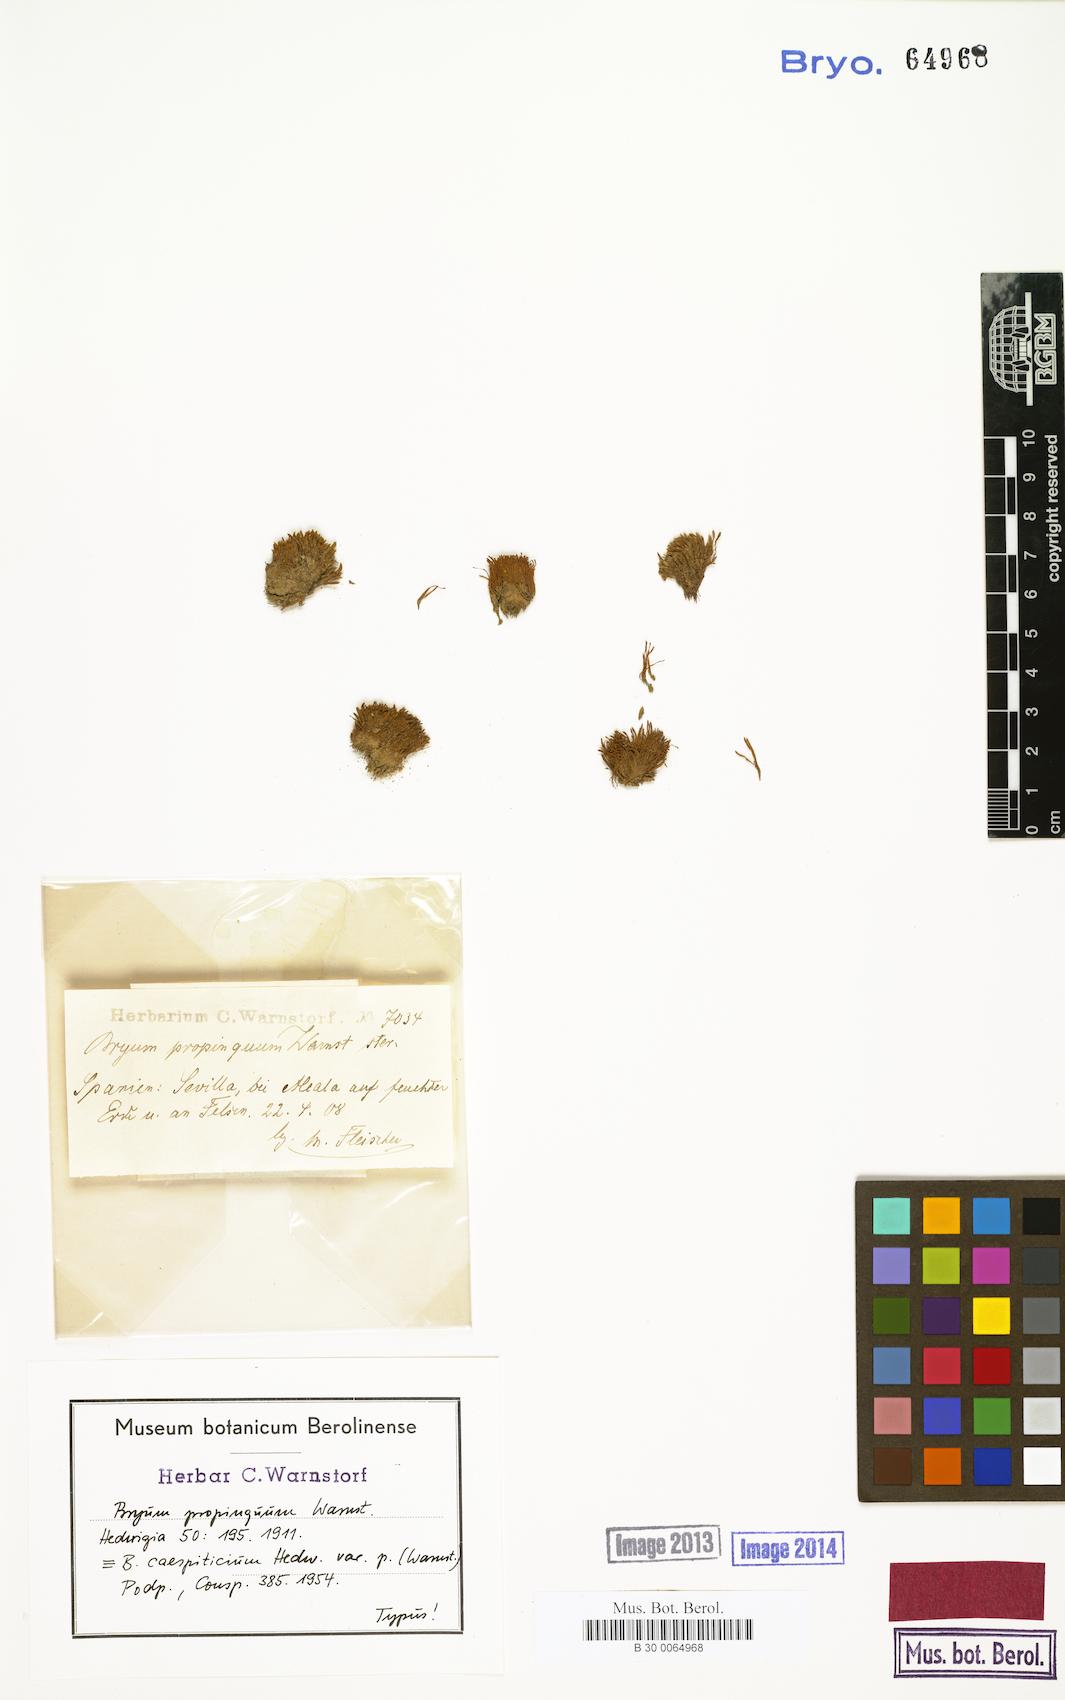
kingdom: Plantae
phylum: Bryophyta
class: Bryopsida
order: Bryales
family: Bryaceae
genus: Gemmabryum
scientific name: Gemmabryum caespiticium
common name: Handbell moss
